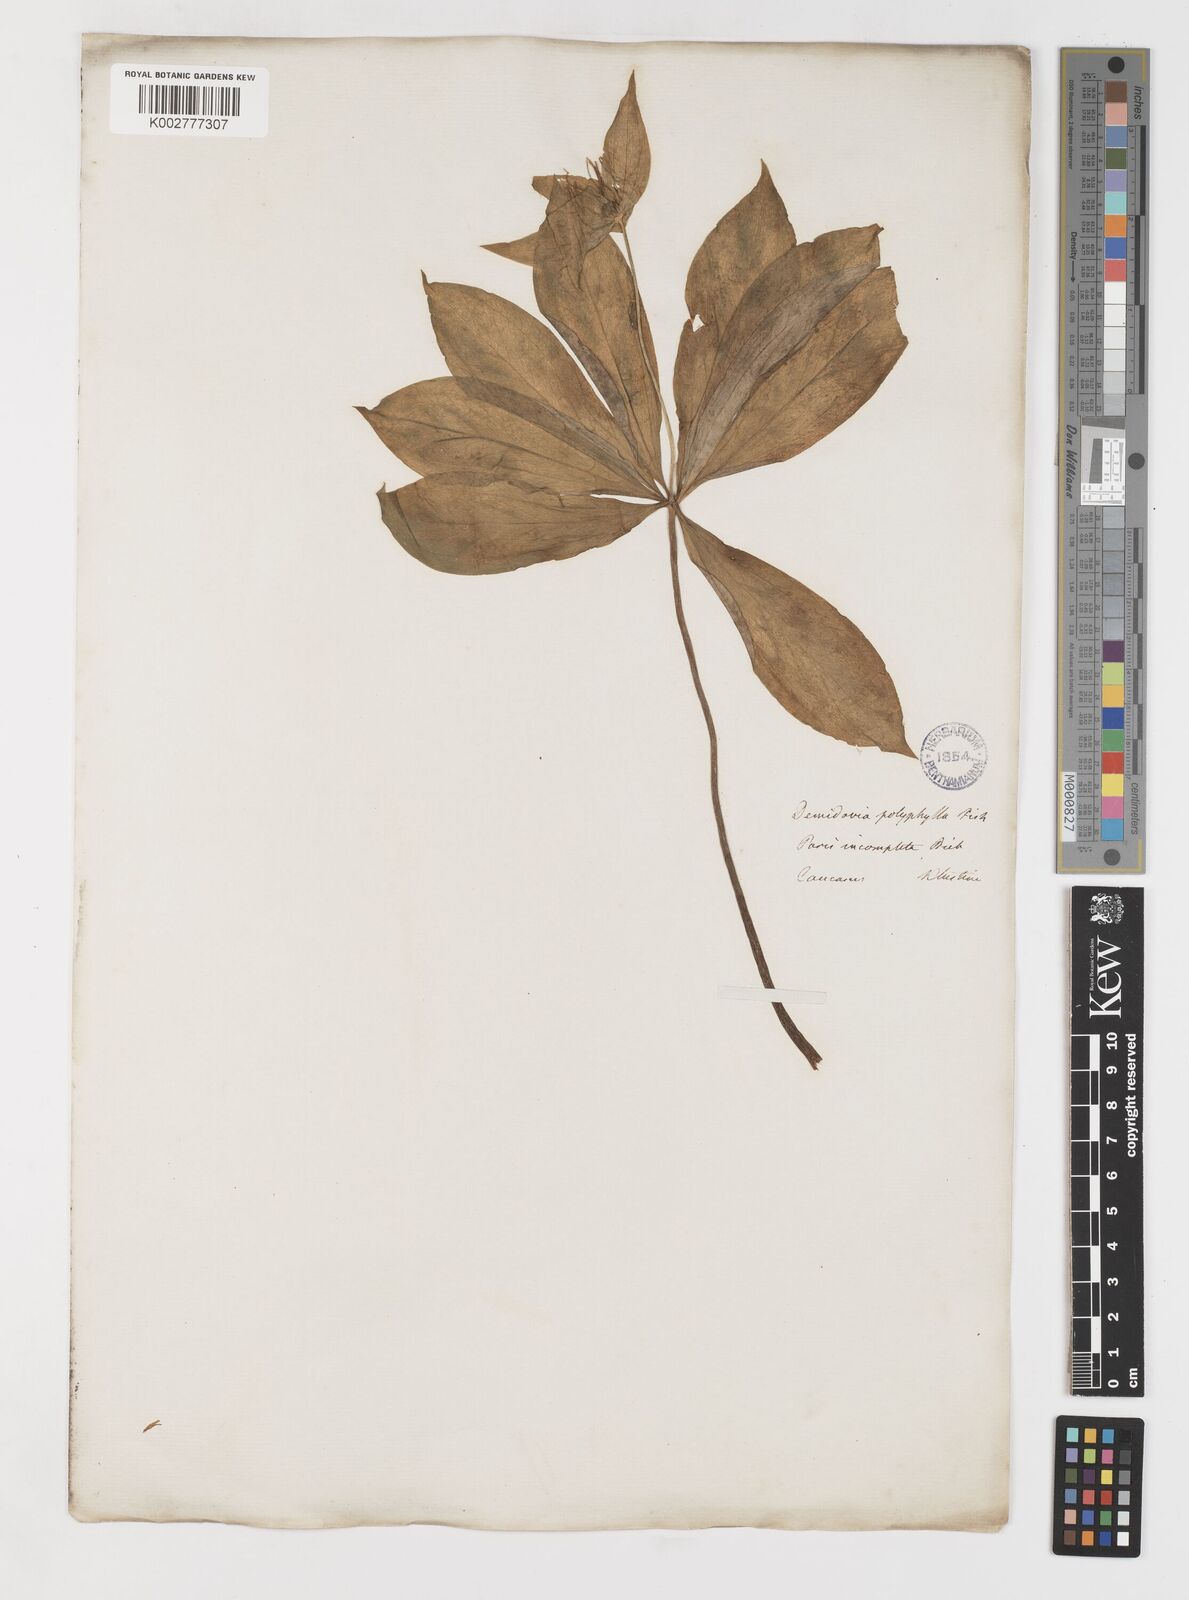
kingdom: Plantae
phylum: Tracheophyta
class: Liliopsida
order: Liliales
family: Melanthiaceae
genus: Paris
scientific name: Paris incompleta
